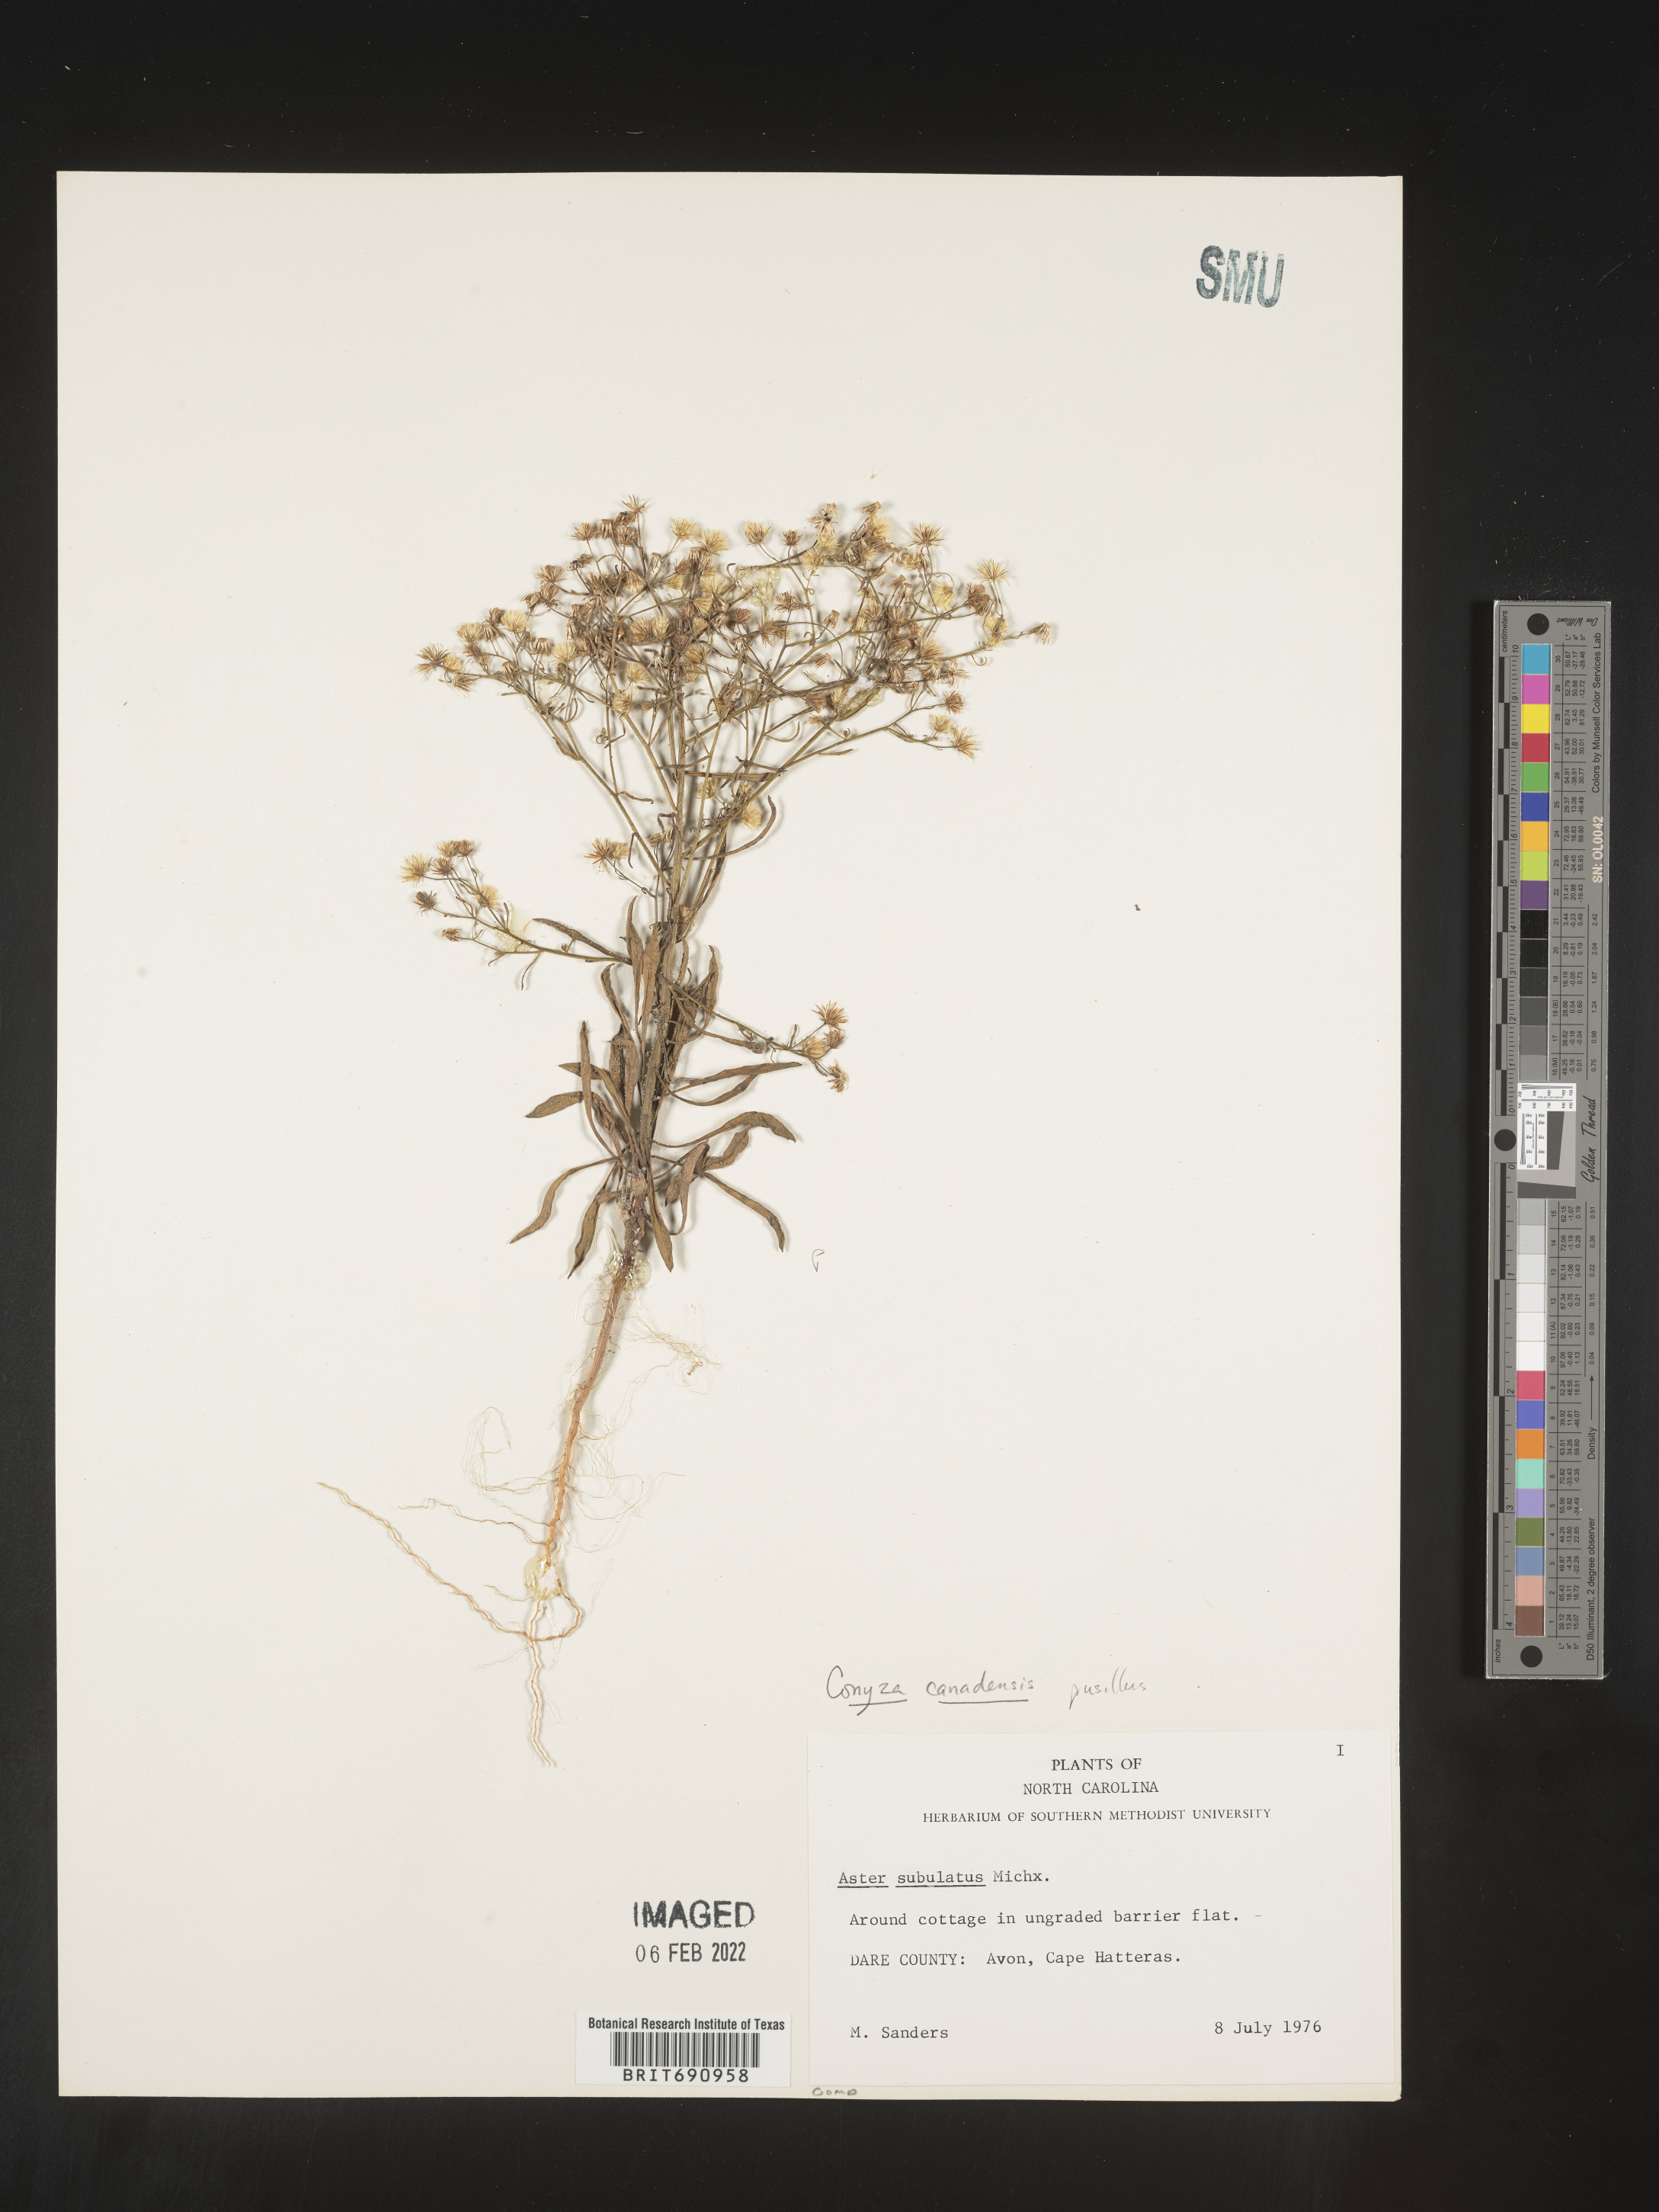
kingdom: Plantae
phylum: Tracheophyta
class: Magnoliopsida
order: Asterales
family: Asteraceae
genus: Erigeron
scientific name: Erigeron canadensis
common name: Canadian fleabane
